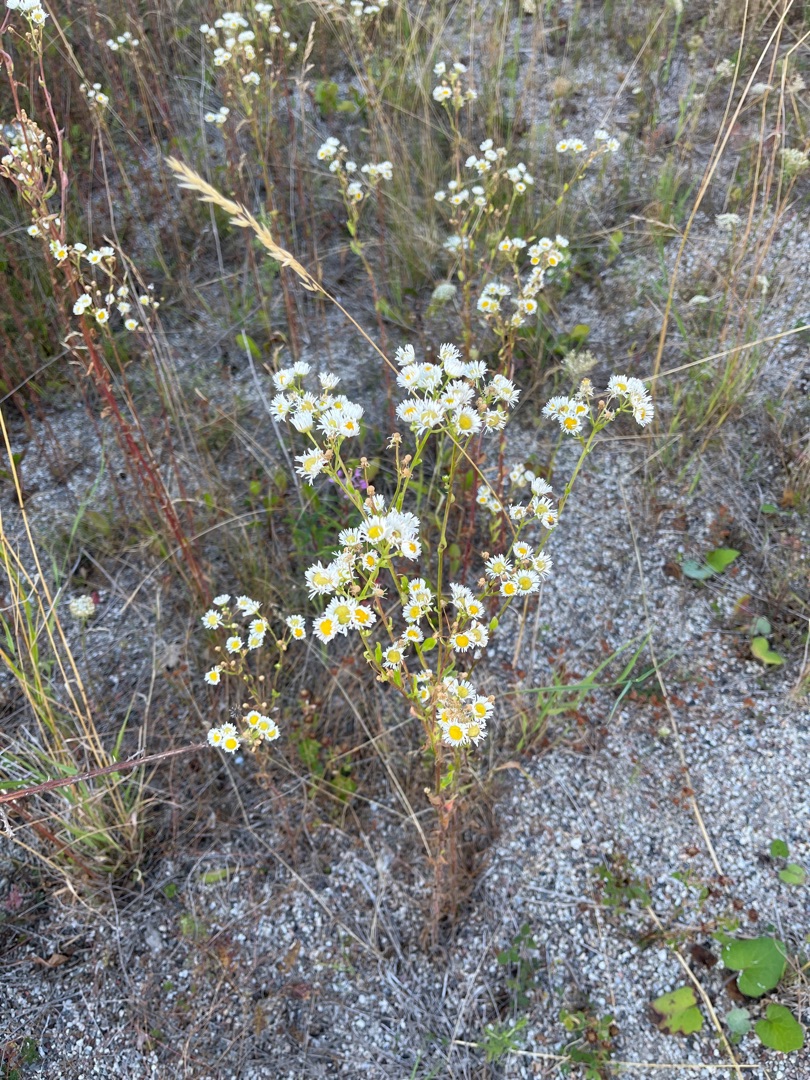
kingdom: Plantae
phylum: Tracheophyta
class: Magnoliopsida
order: Asterales
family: Asteraceae
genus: Erigeron
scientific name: Erigeron annuus
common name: Smalstråle
